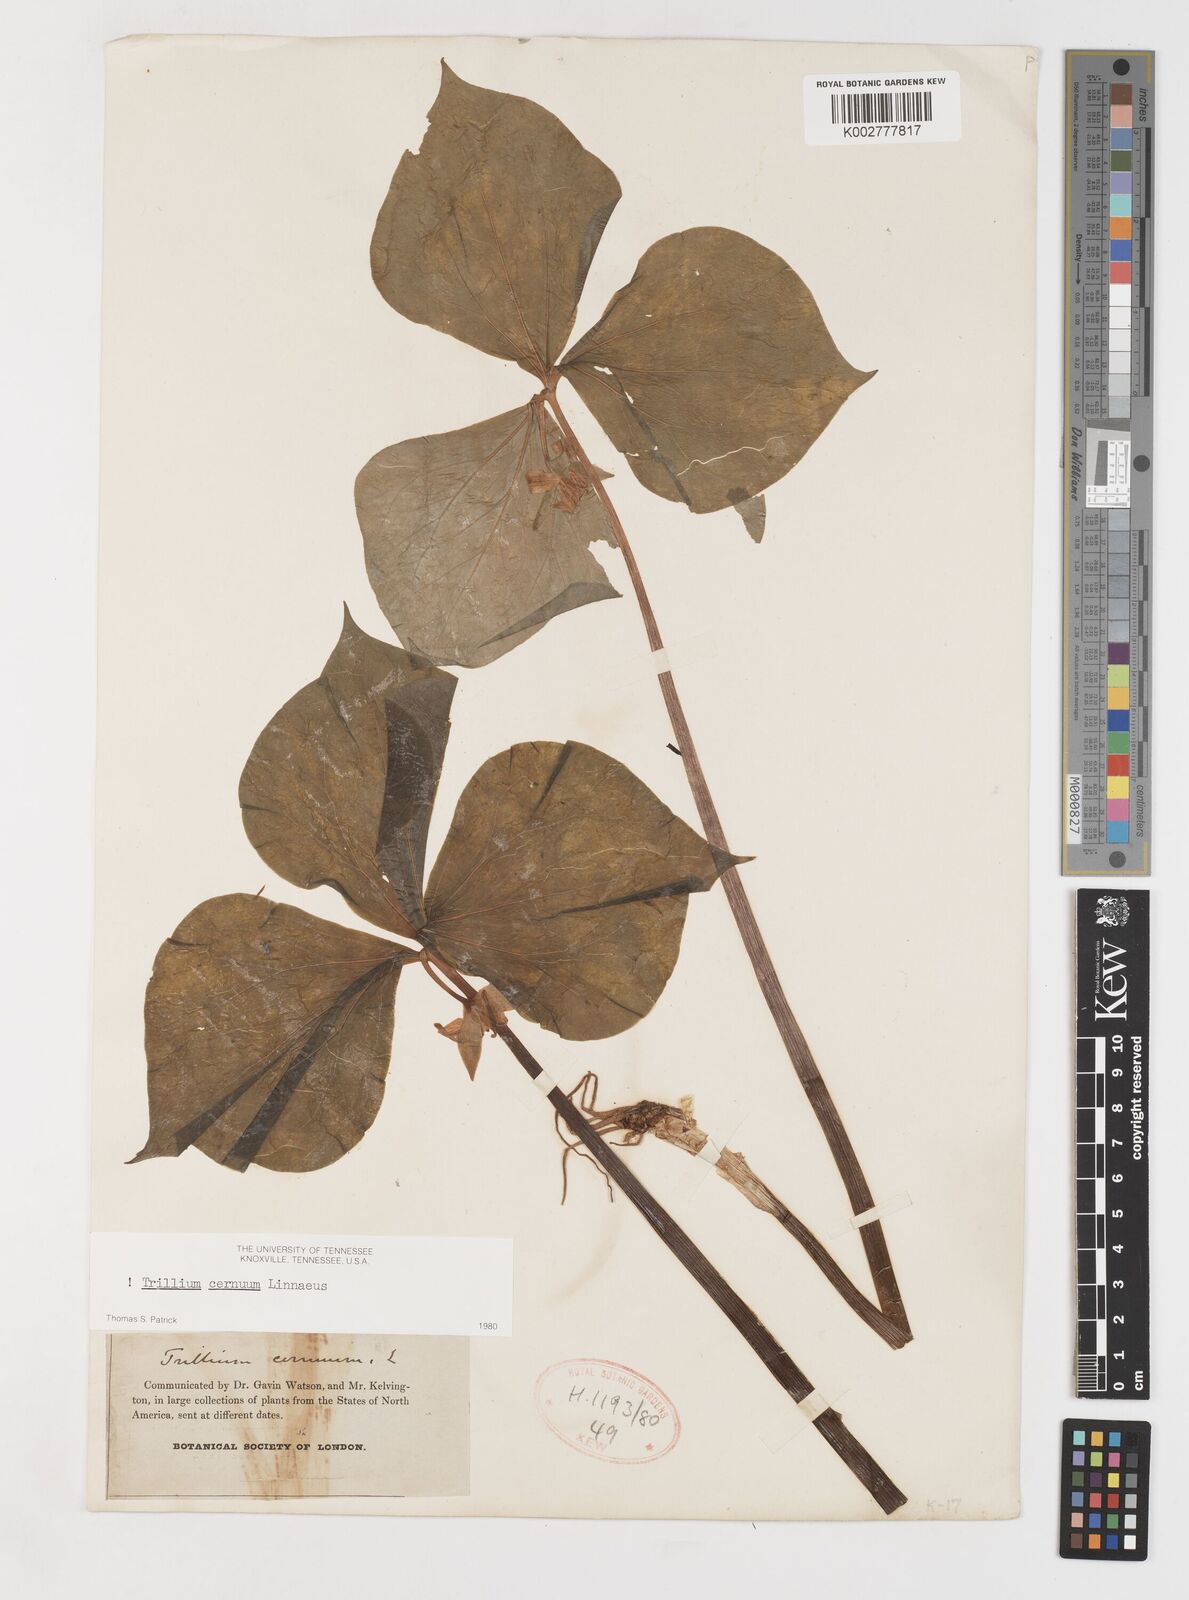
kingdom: Plantae
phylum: Tracheophyta
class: Liliopsida
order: Liliales
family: Melanthiaceae
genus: Trillium
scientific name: Trillium cernuum
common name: Nodding trillium
